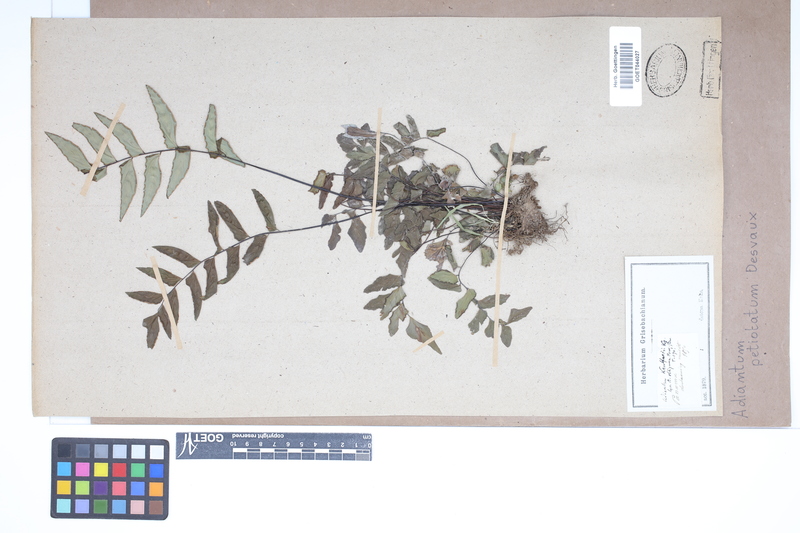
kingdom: Plantae
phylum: Tracheophyta
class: Polypodiopsida
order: Polypodiales
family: Pteridaceae
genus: Adiantum
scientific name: Adiantum petiolatum
